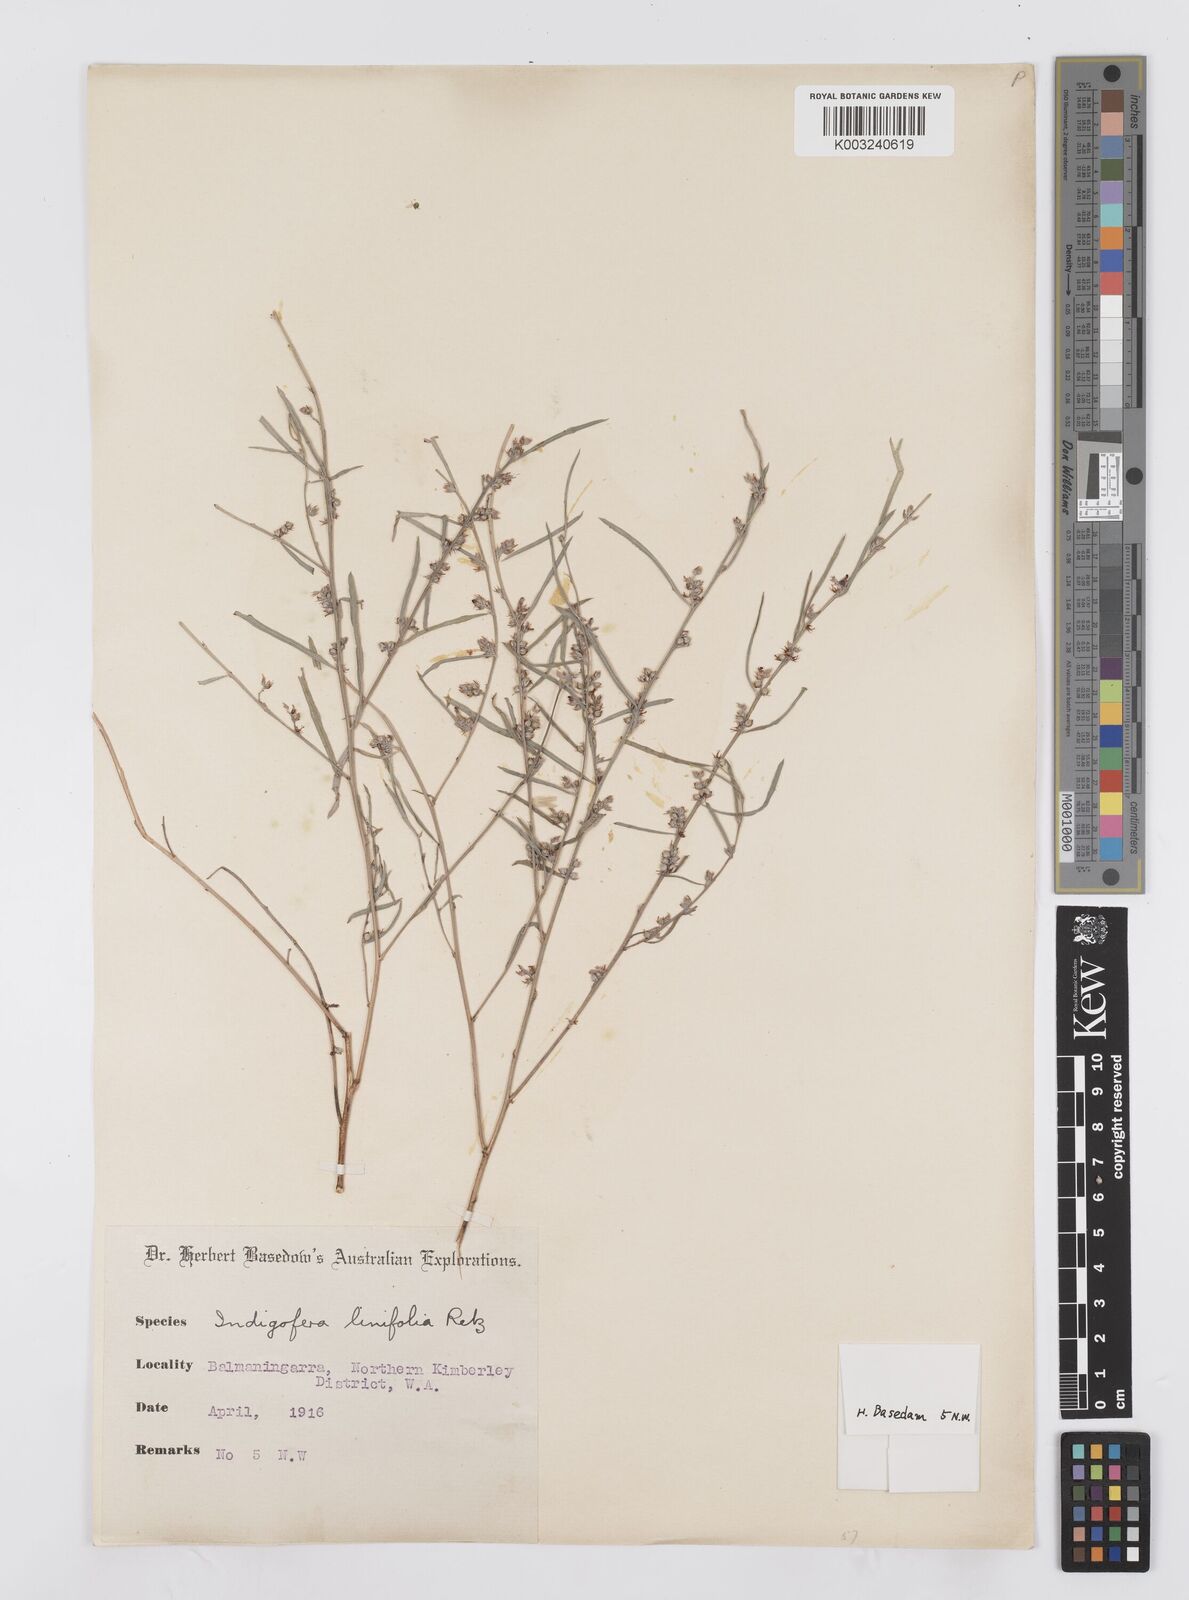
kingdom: Plantae
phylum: Tracheophyta
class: Magnoliopsida
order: Fabales
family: Fabaceae
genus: Indigofera
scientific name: Indigofera linifolia
